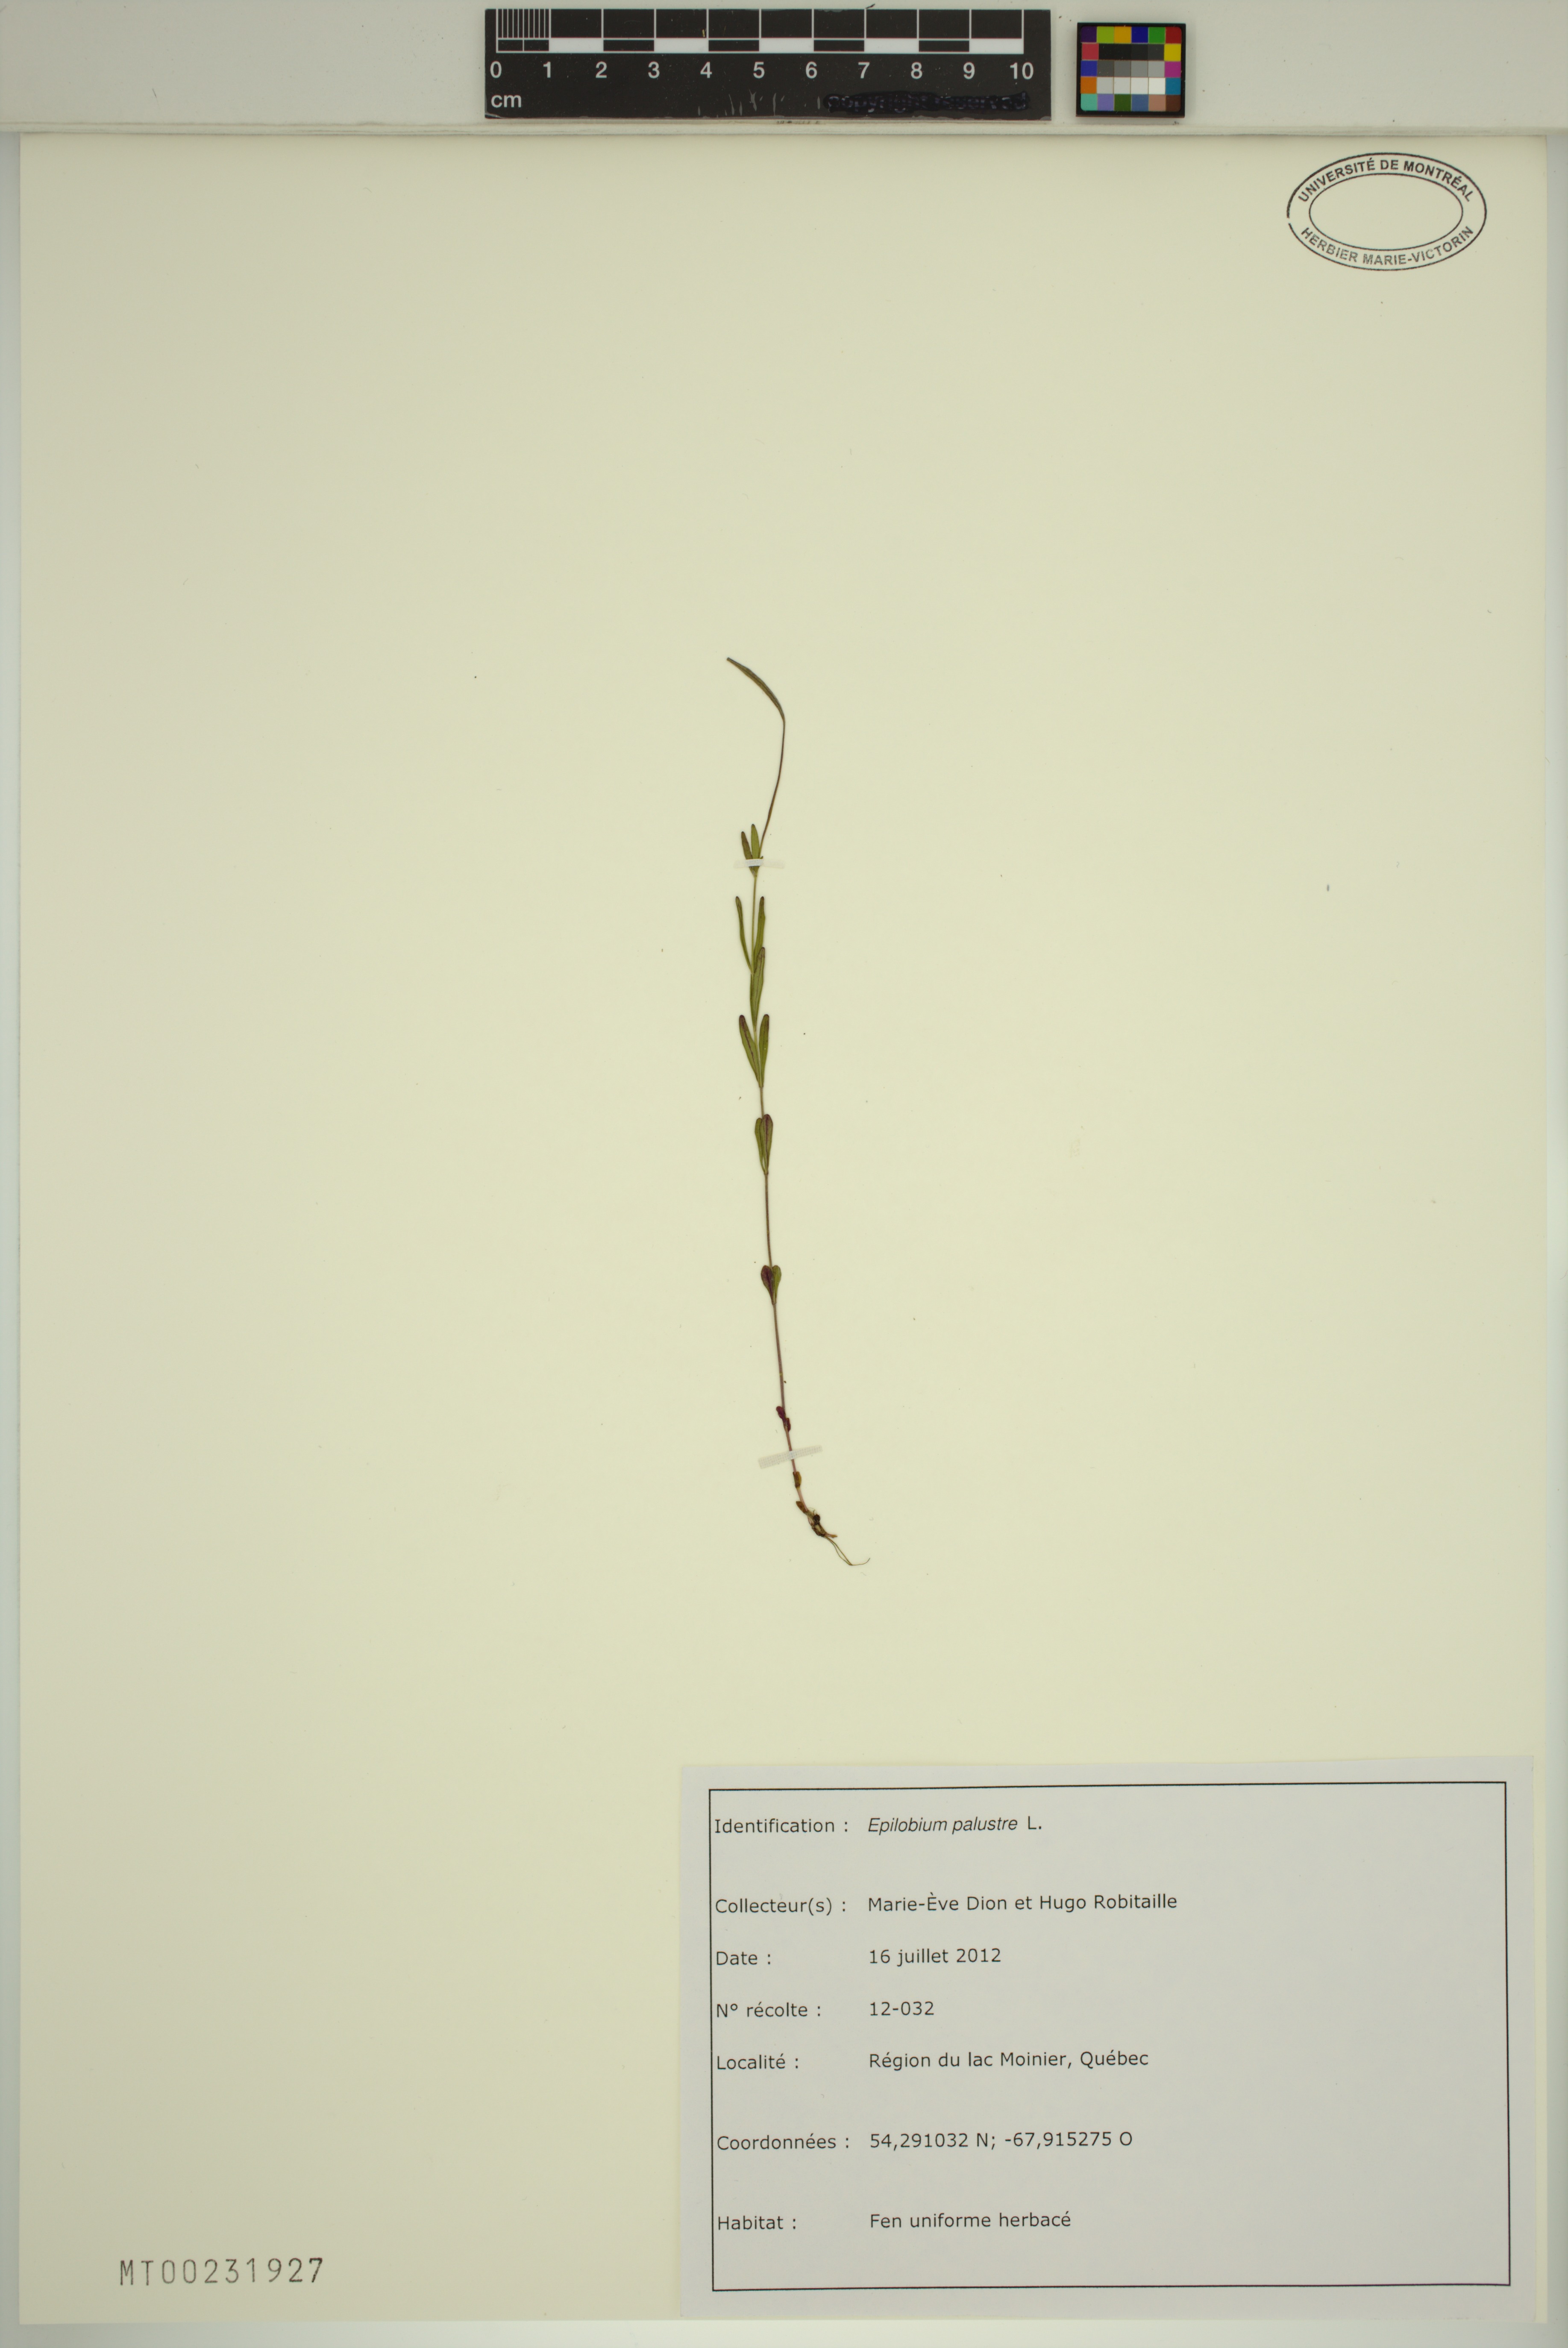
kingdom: Plantae
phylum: Tracheophyta
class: Magnoliopsida
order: Myrtales
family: Onagraceae
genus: Epilobium
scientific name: Epilobium palustre
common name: Marsh willowherb
